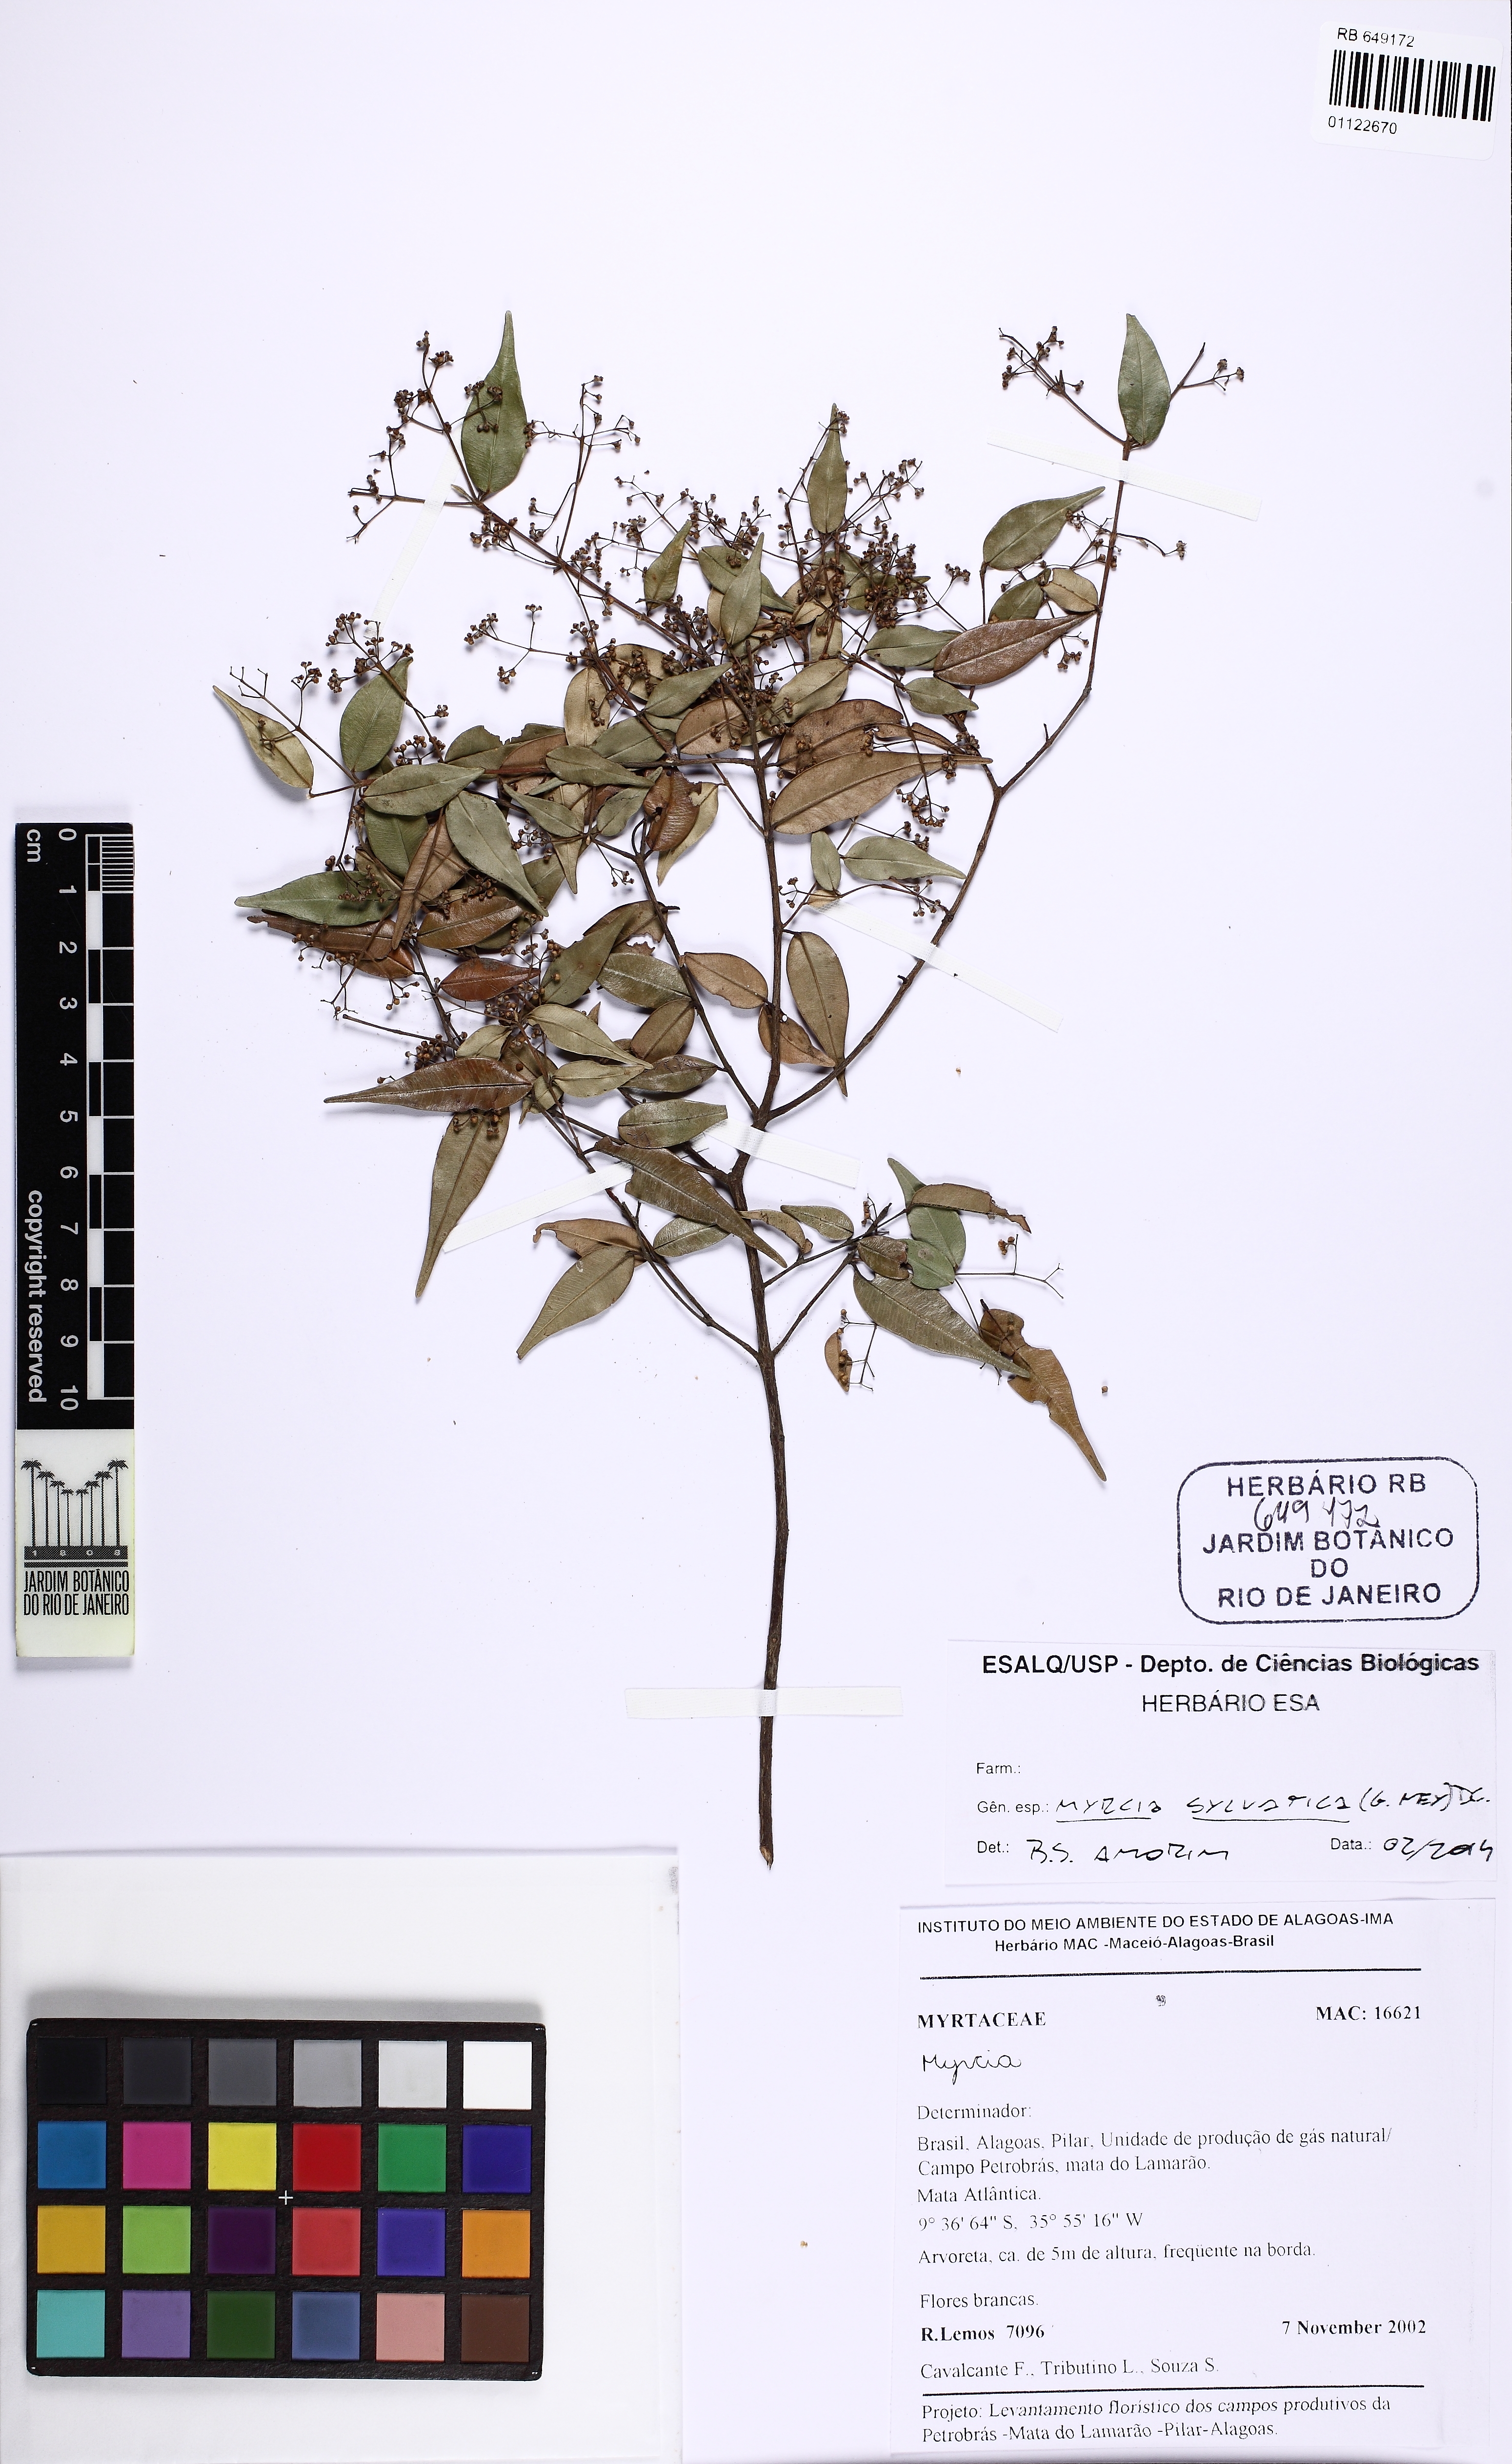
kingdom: Plantae
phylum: Tracheophyta
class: Magnoliopsida
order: Myrtales
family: Myrtaceae
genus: Myrcia
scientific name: Myrcia sylvatica
